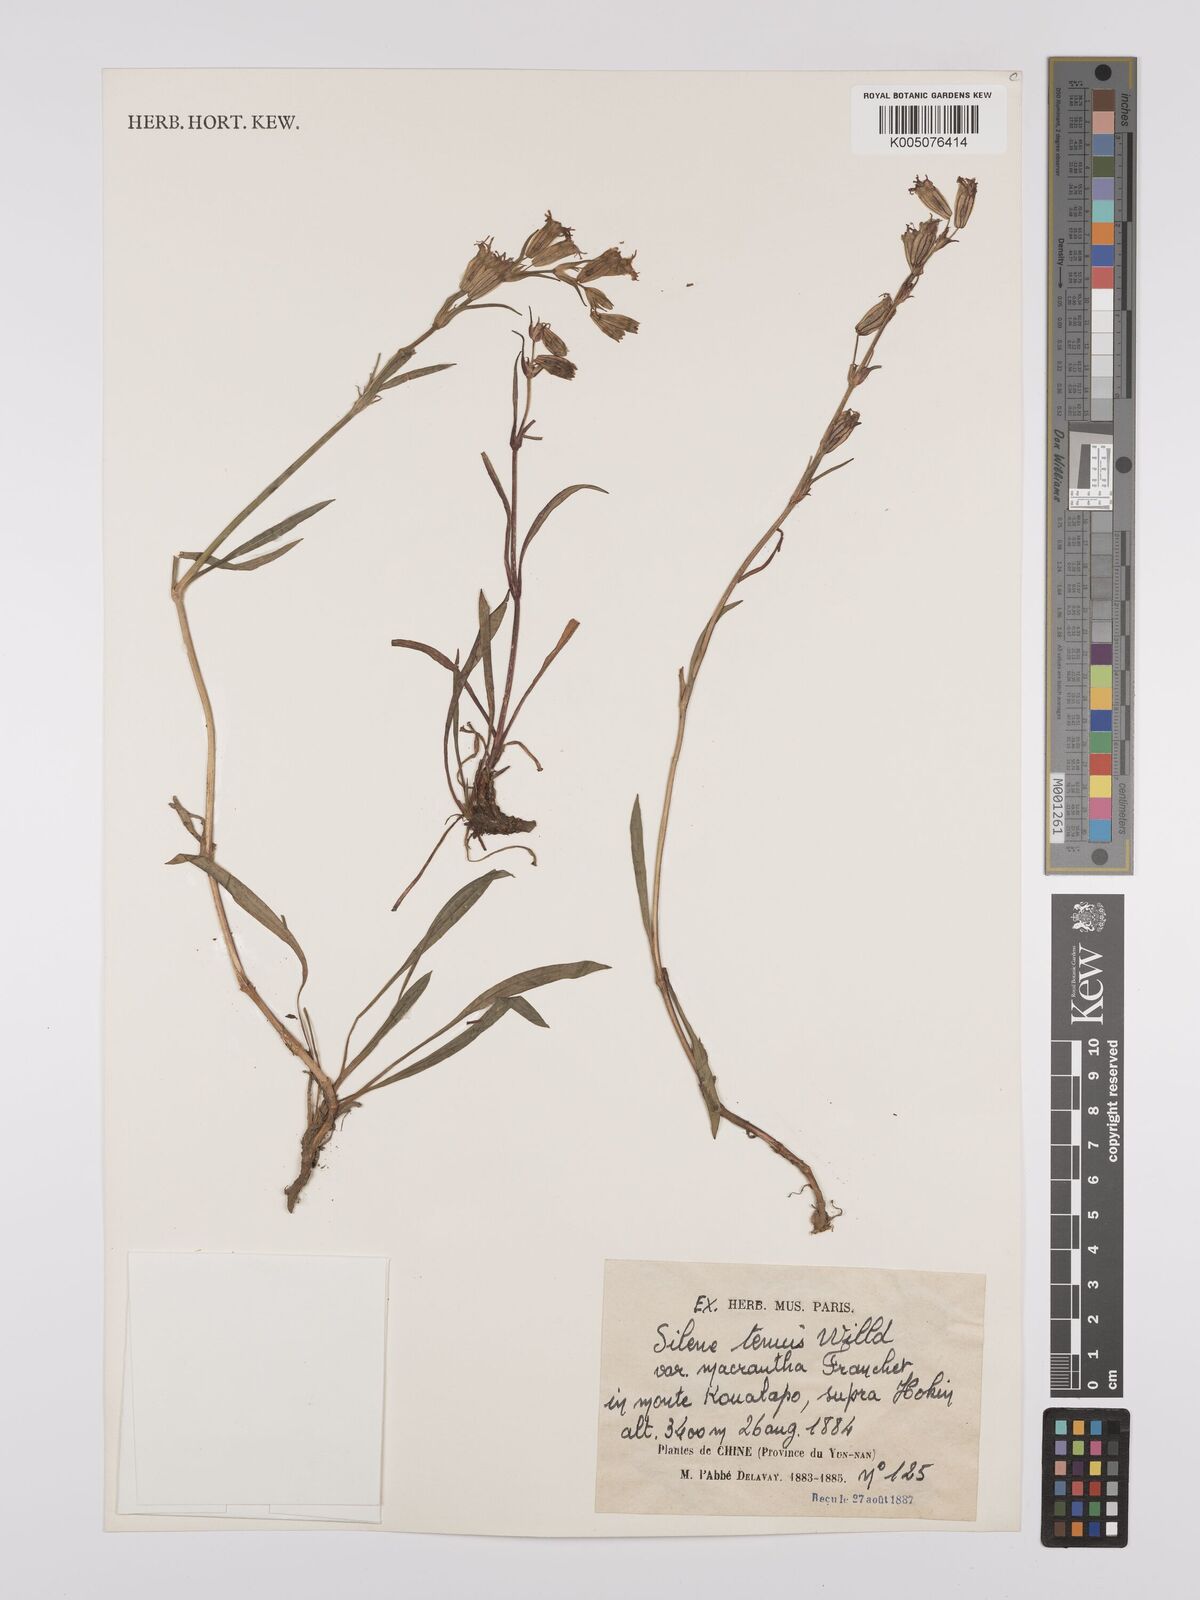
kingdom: Plantae
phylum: Tracheophyta
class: Magnoliopsida
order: Caryophyllales
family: Caryophyllaceae
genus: Silene
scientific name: Silene
